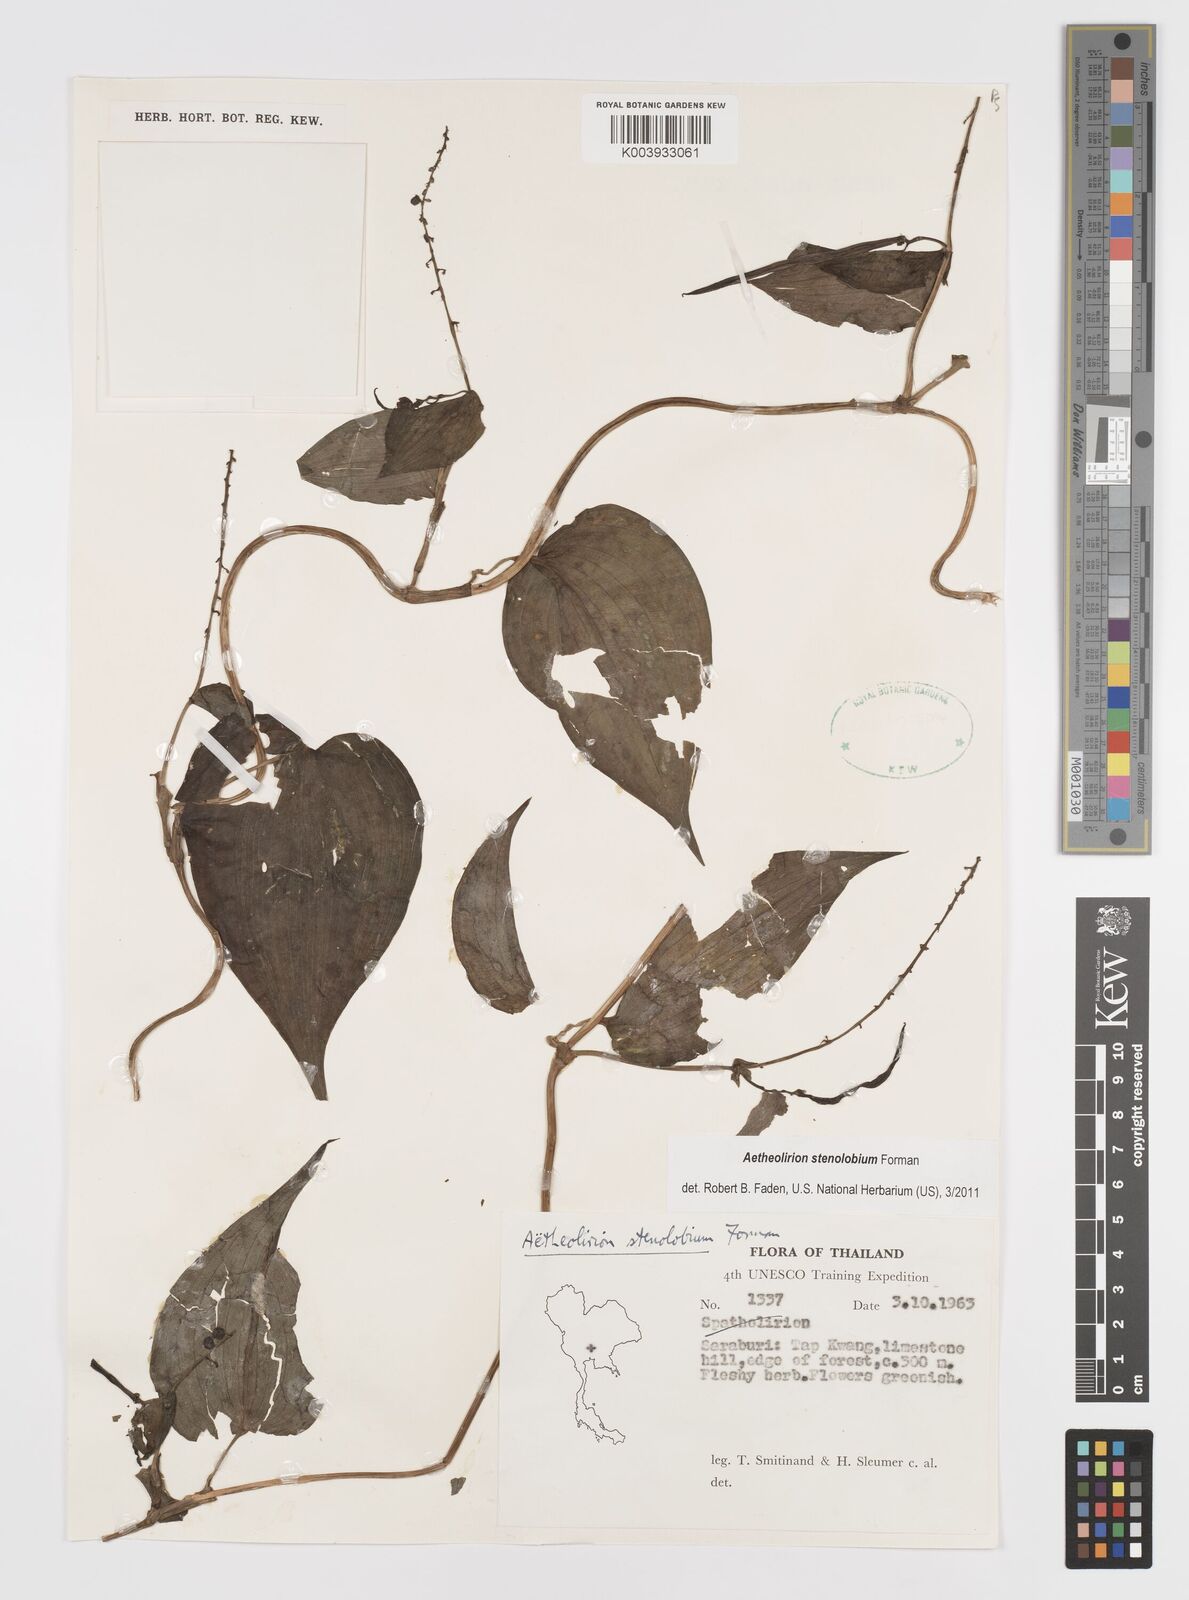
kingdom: Plantae
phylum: Tracheophyta
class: Liliopsida
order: Commelinales
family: Commelinaceae
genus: Aetheolirion
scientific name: Aetheolirion stenolobium
